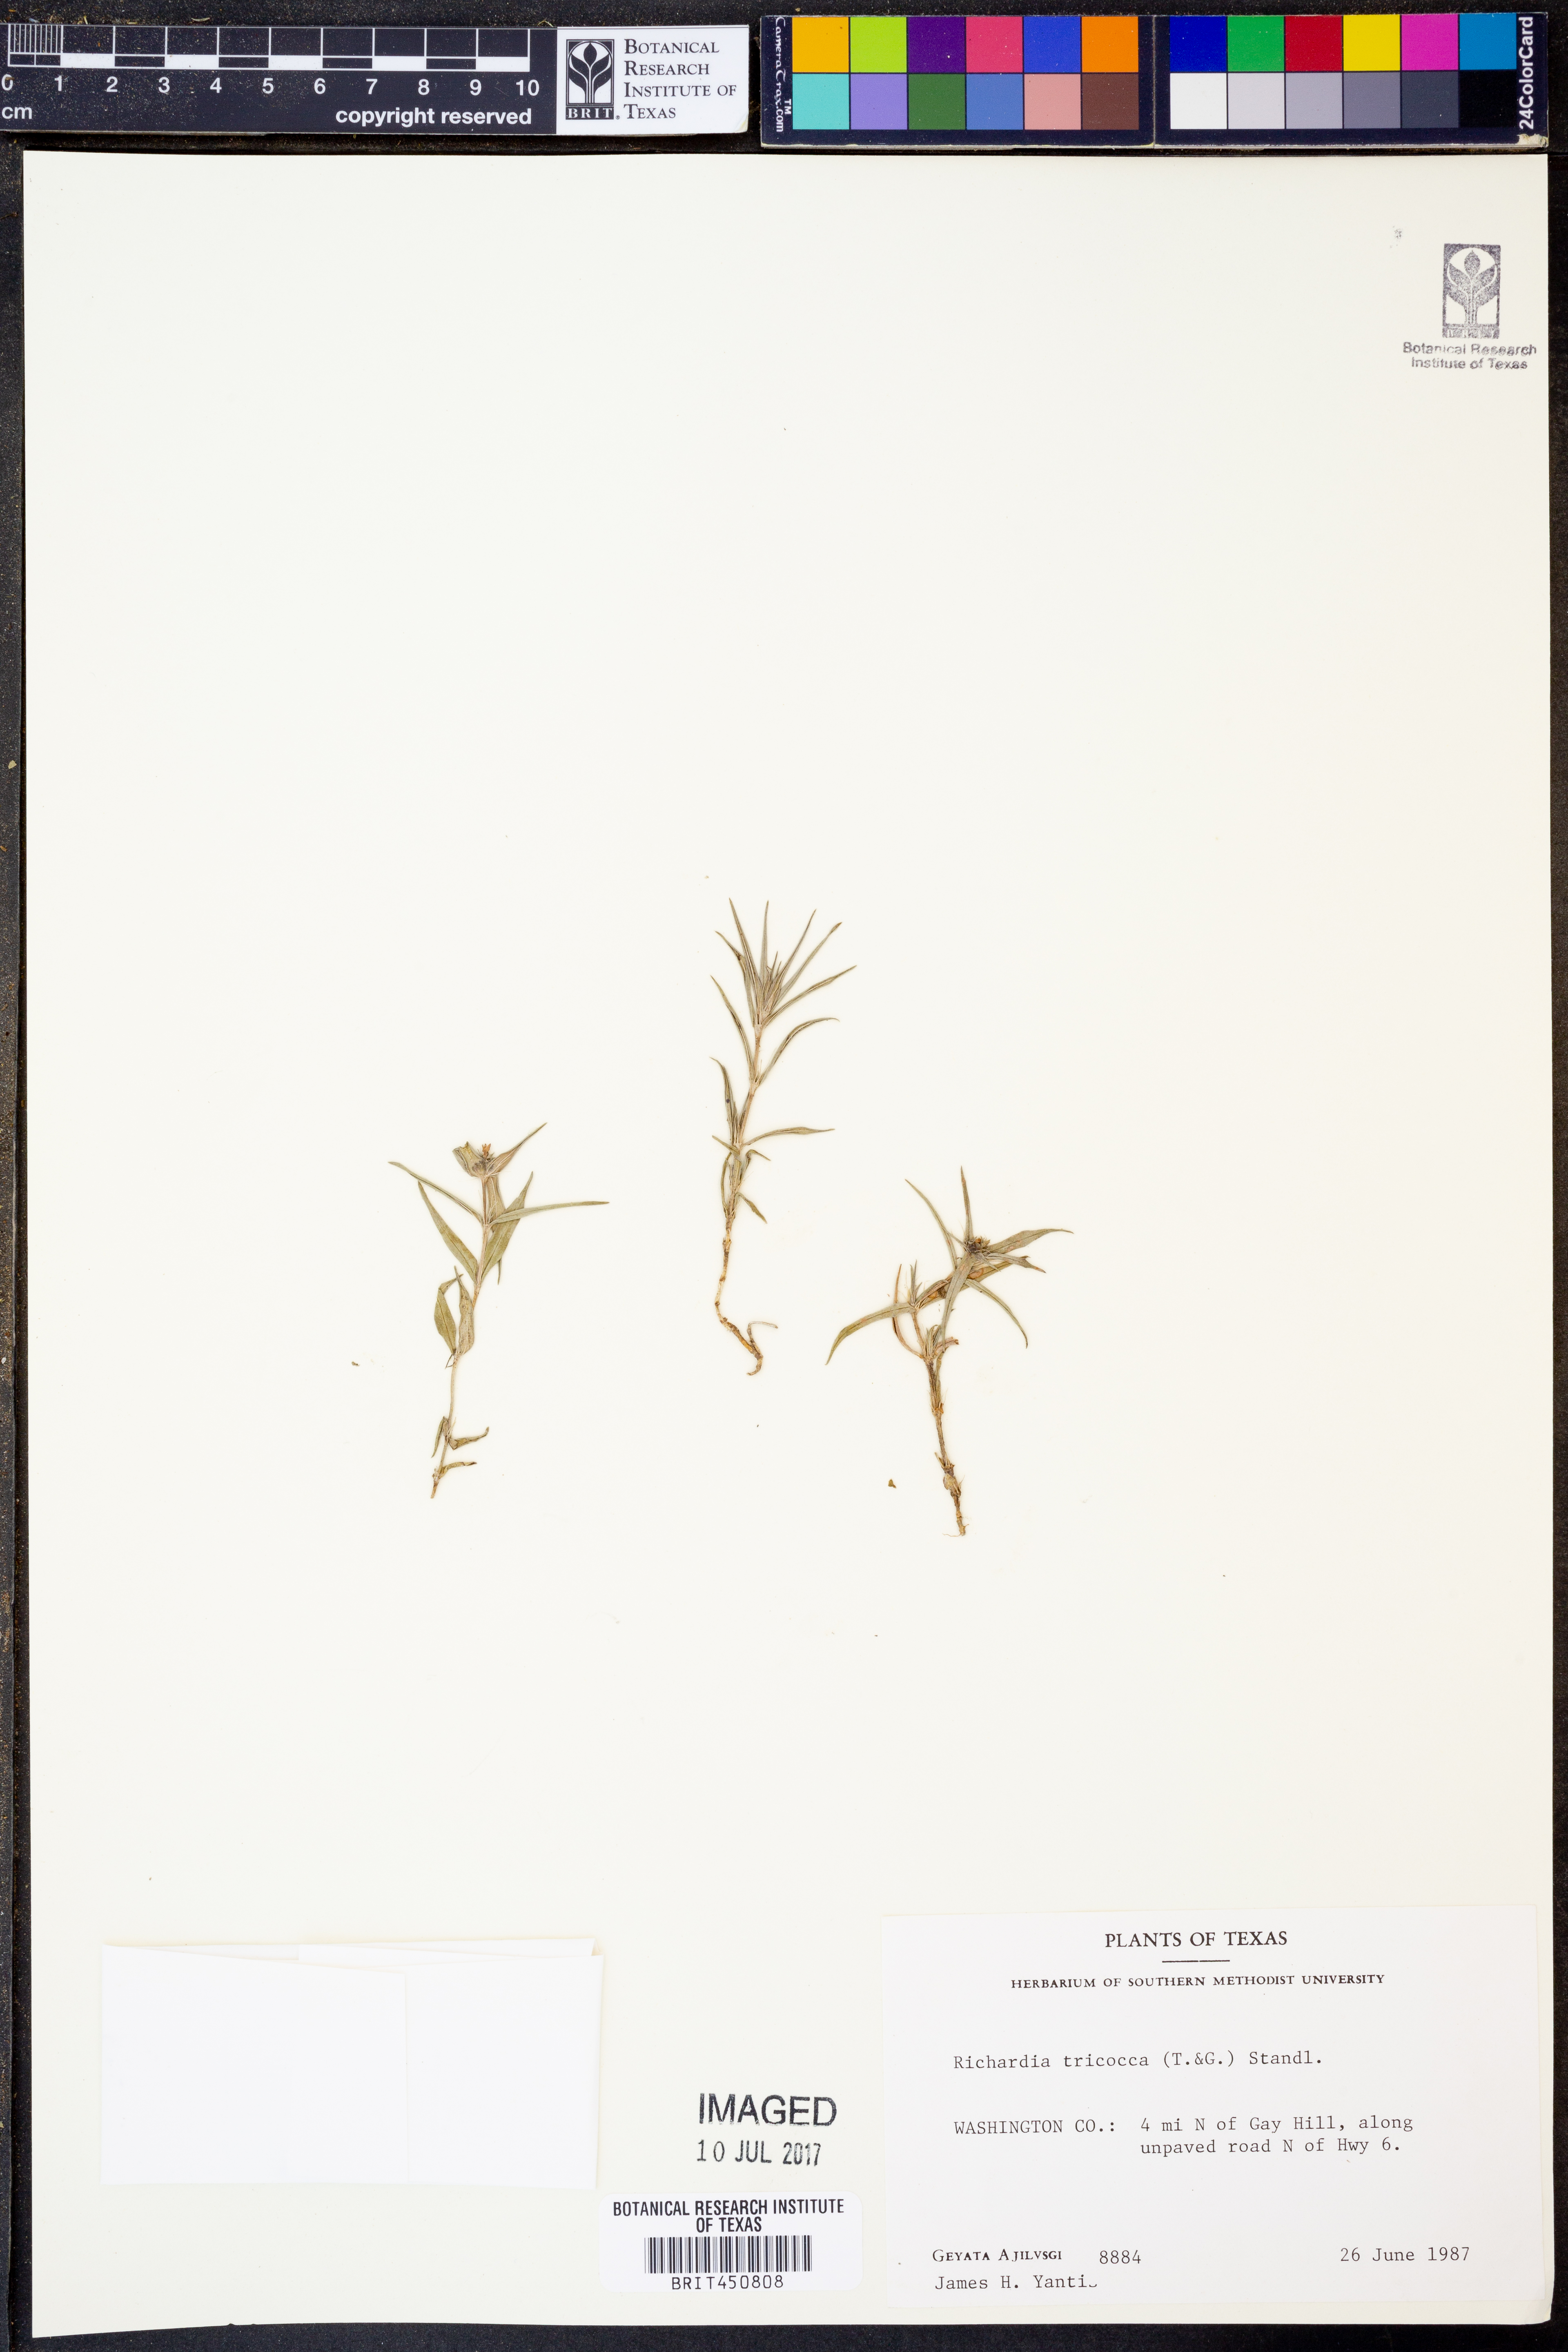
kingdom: Plantae
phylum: Tracheophyta
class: Magnoliopsida
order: Gentianales
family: Rubiaceae
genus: Richardia
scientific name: Richardia tricocca
